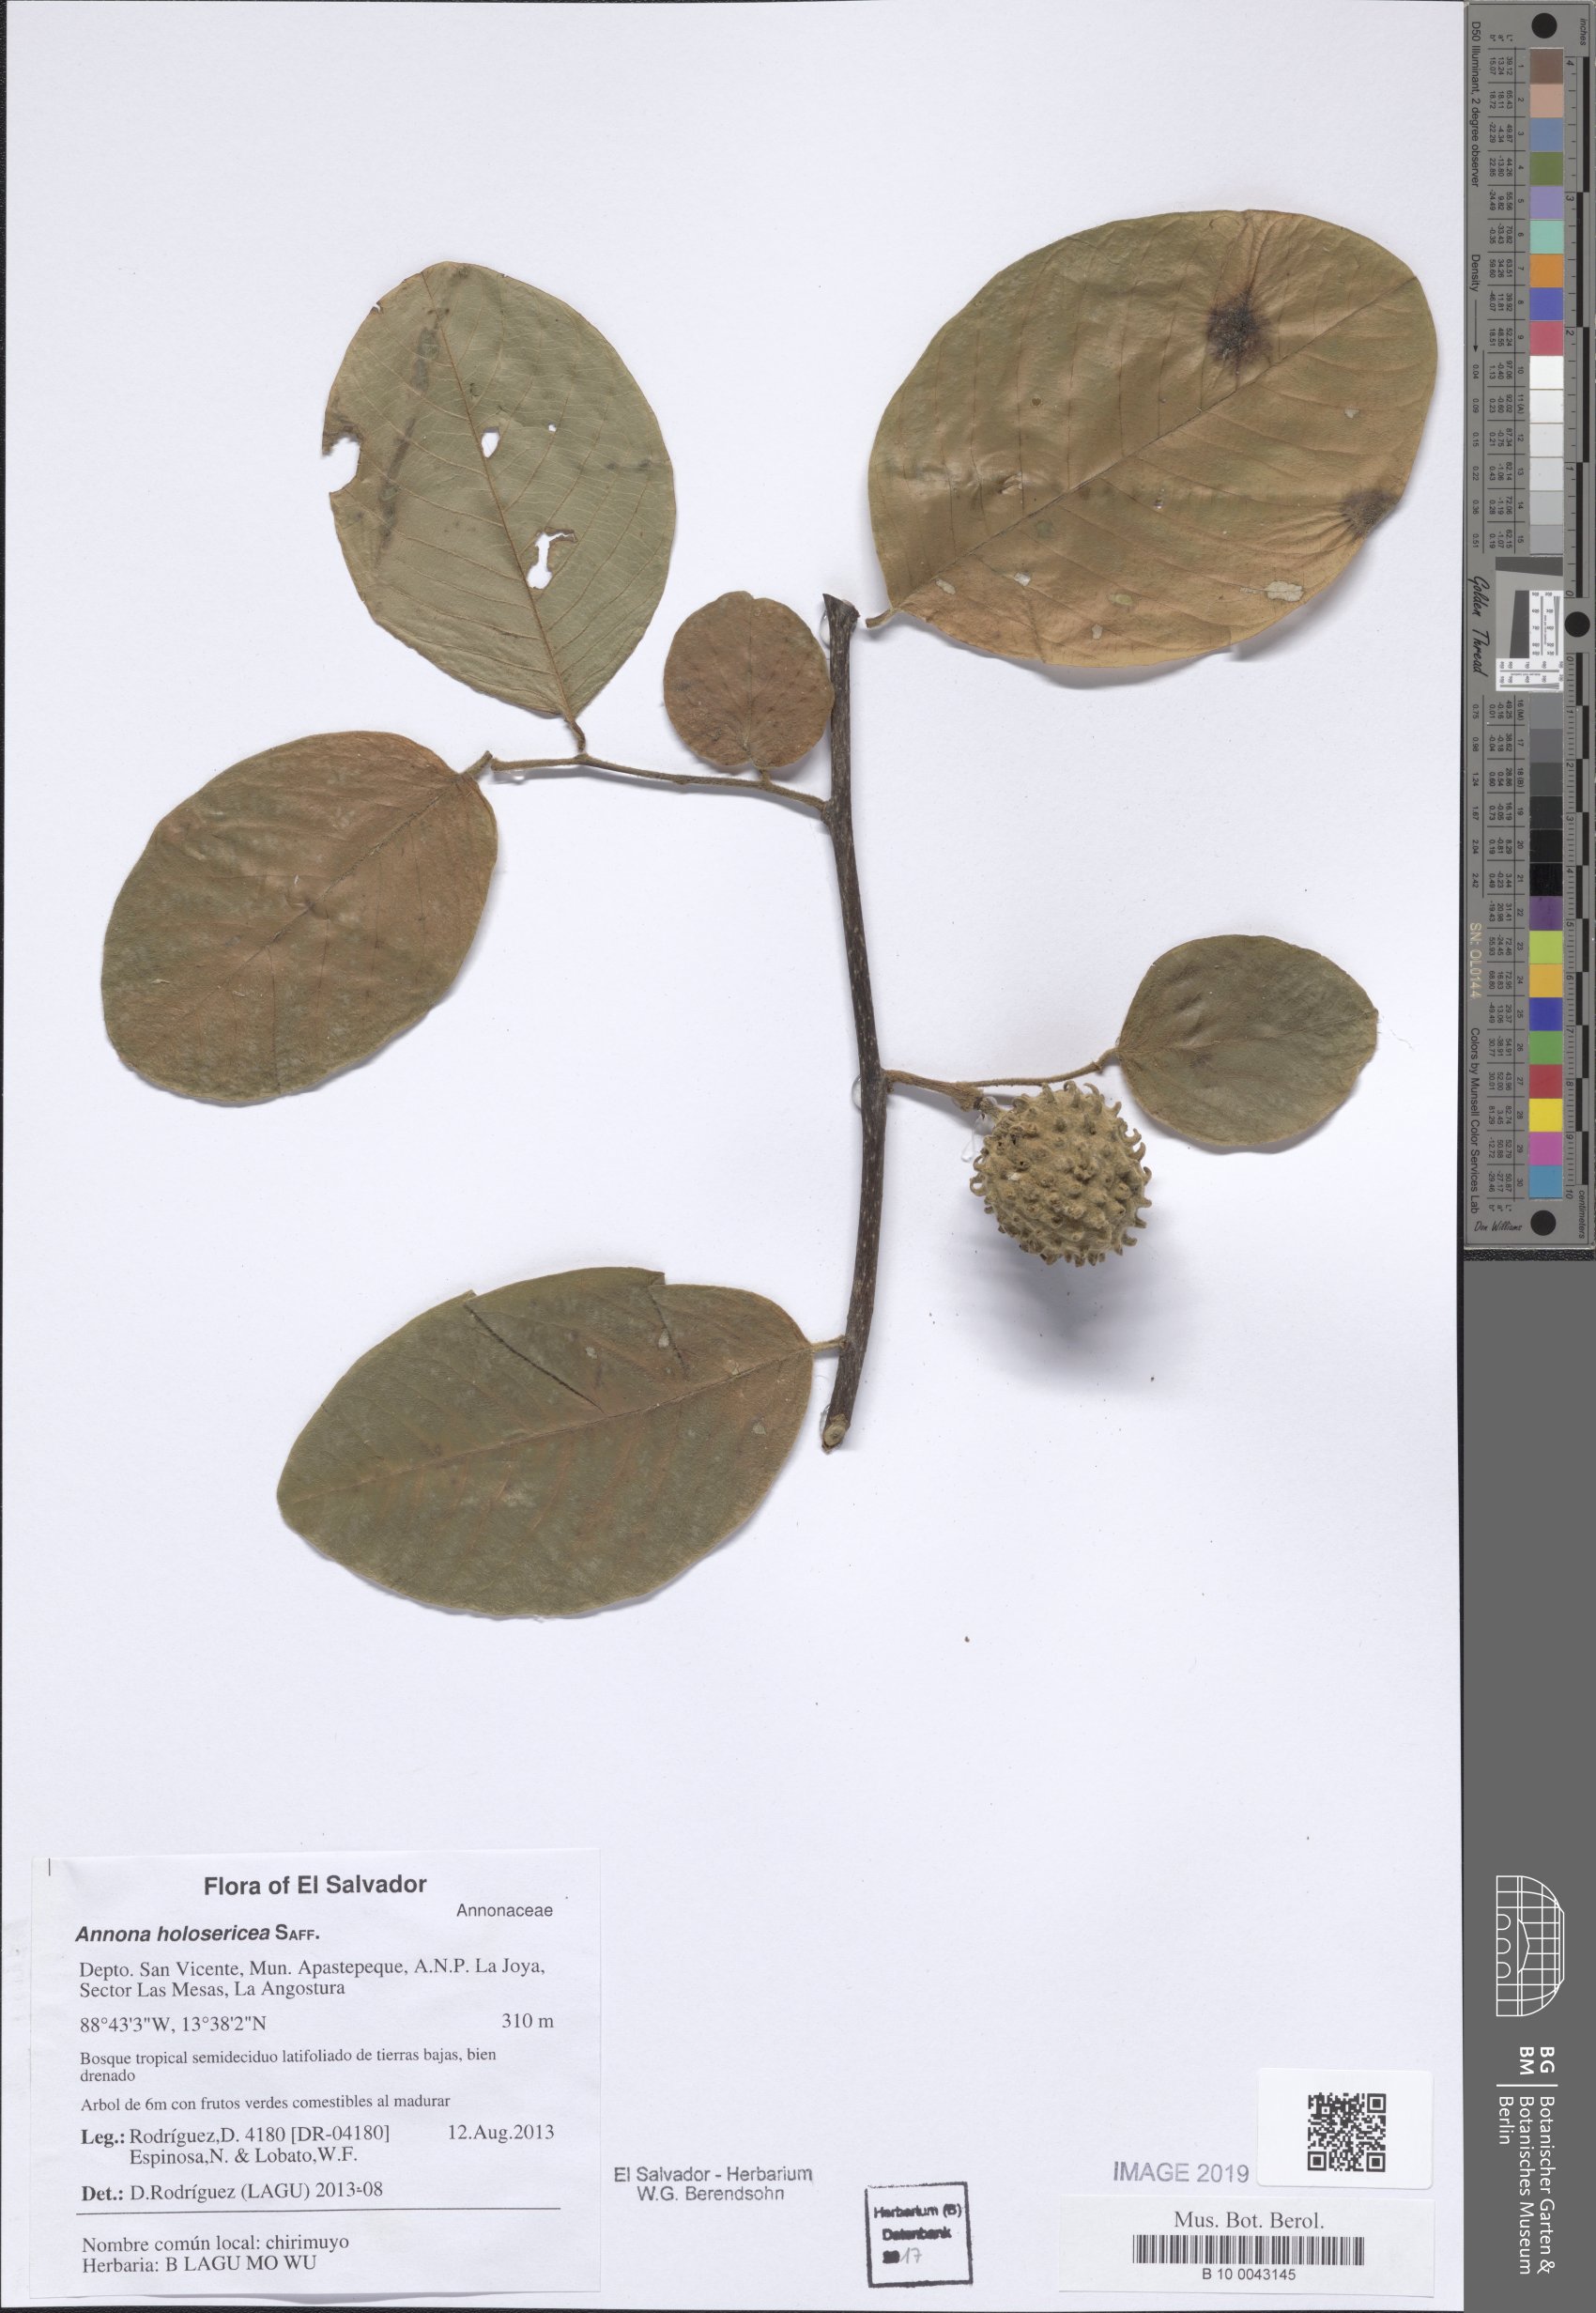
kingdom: Plantae
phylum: Tracheophyta
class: Magnoliopsida
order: Magnoliales
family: Annonaceae
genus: Annona
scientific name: Annona holosericea
